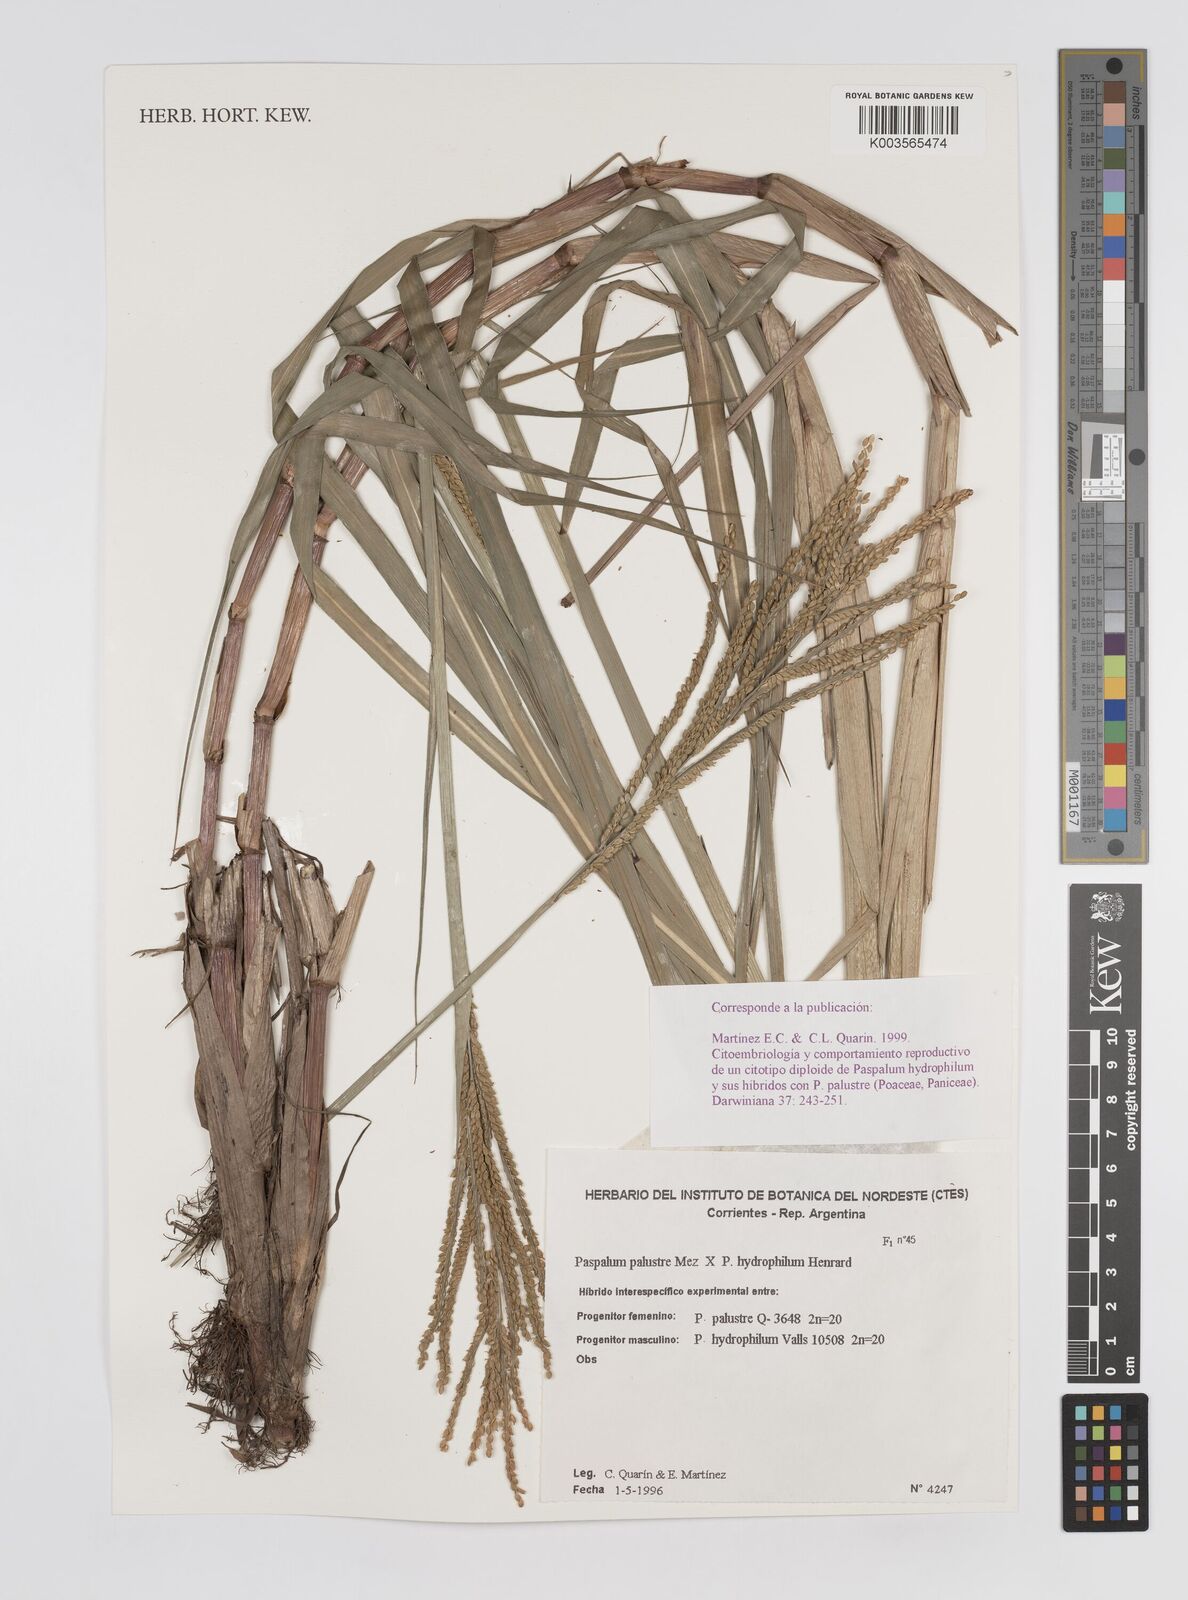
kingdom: Plantae
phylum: Tracheophyta
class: Liliopsida
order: Poales
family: Poaceae
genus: Paspalum
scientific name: Paspalum wrightii
